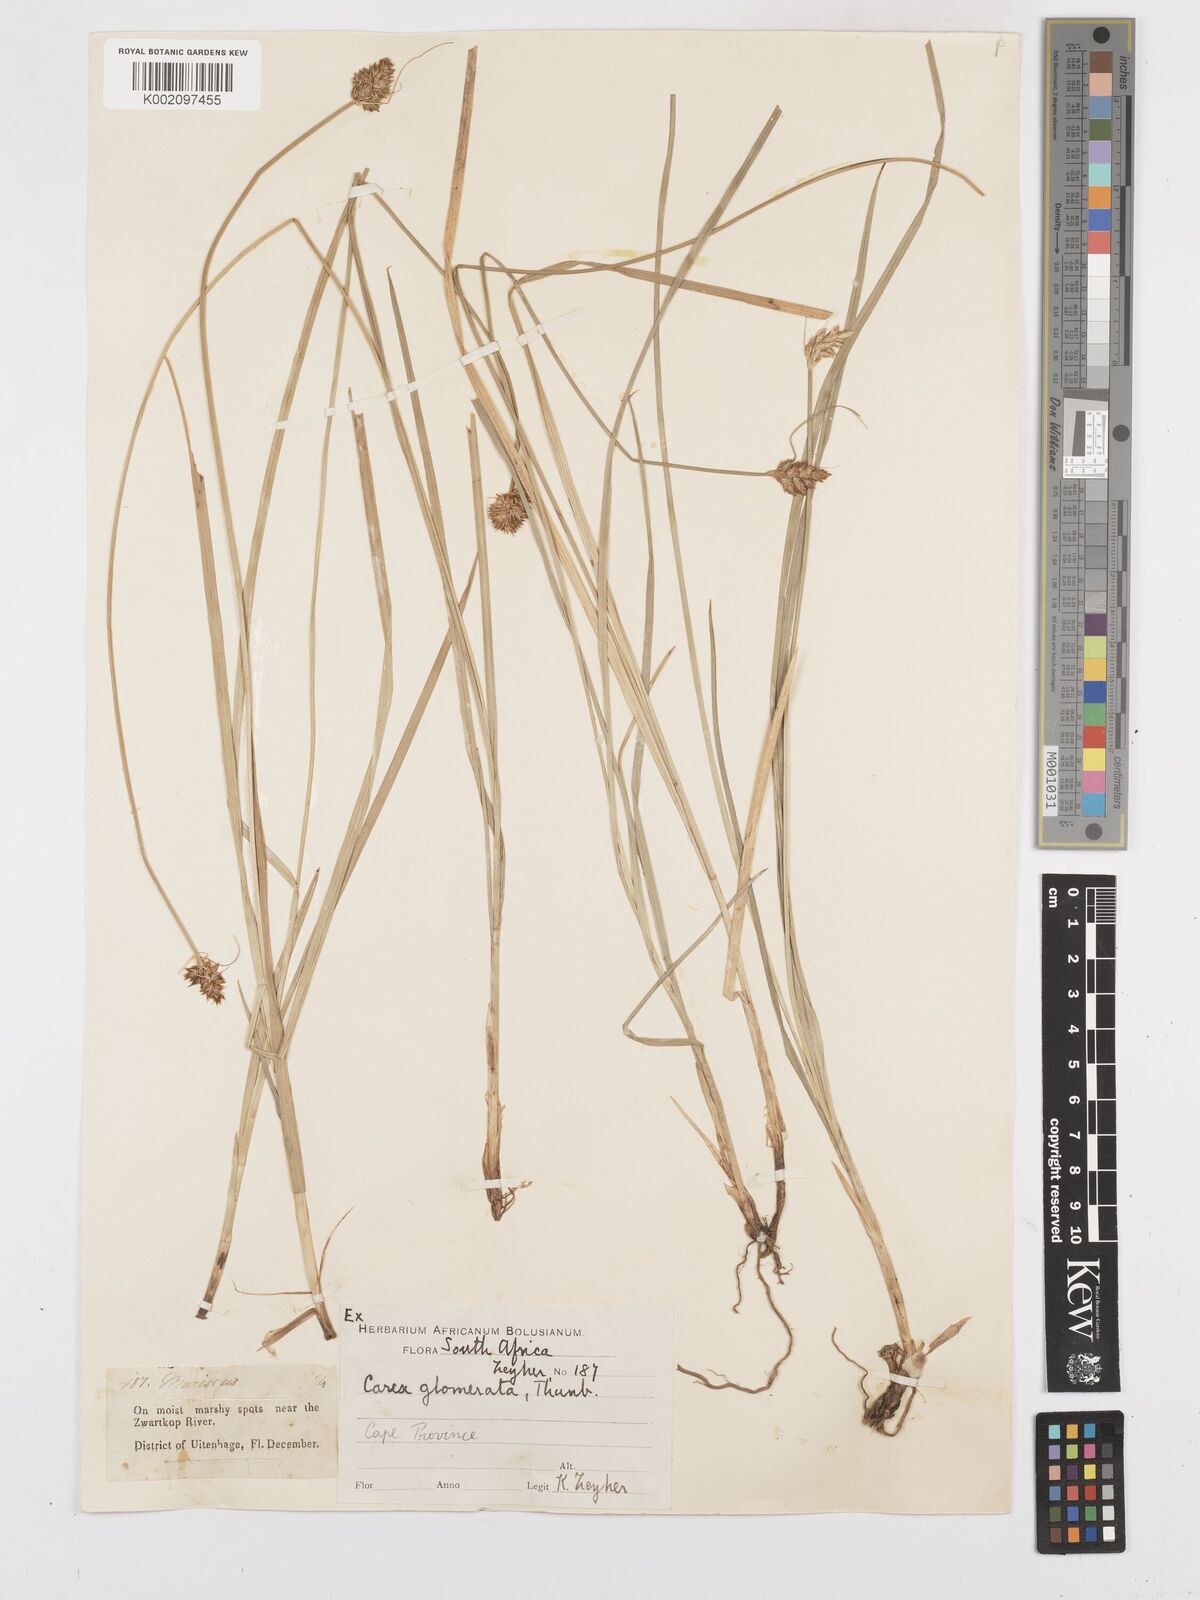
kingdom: Plantae
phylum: Tracheophyta
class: Liliopsida
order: Poales
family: Cyperaceae
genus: Carex
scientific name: Carex glomerata
